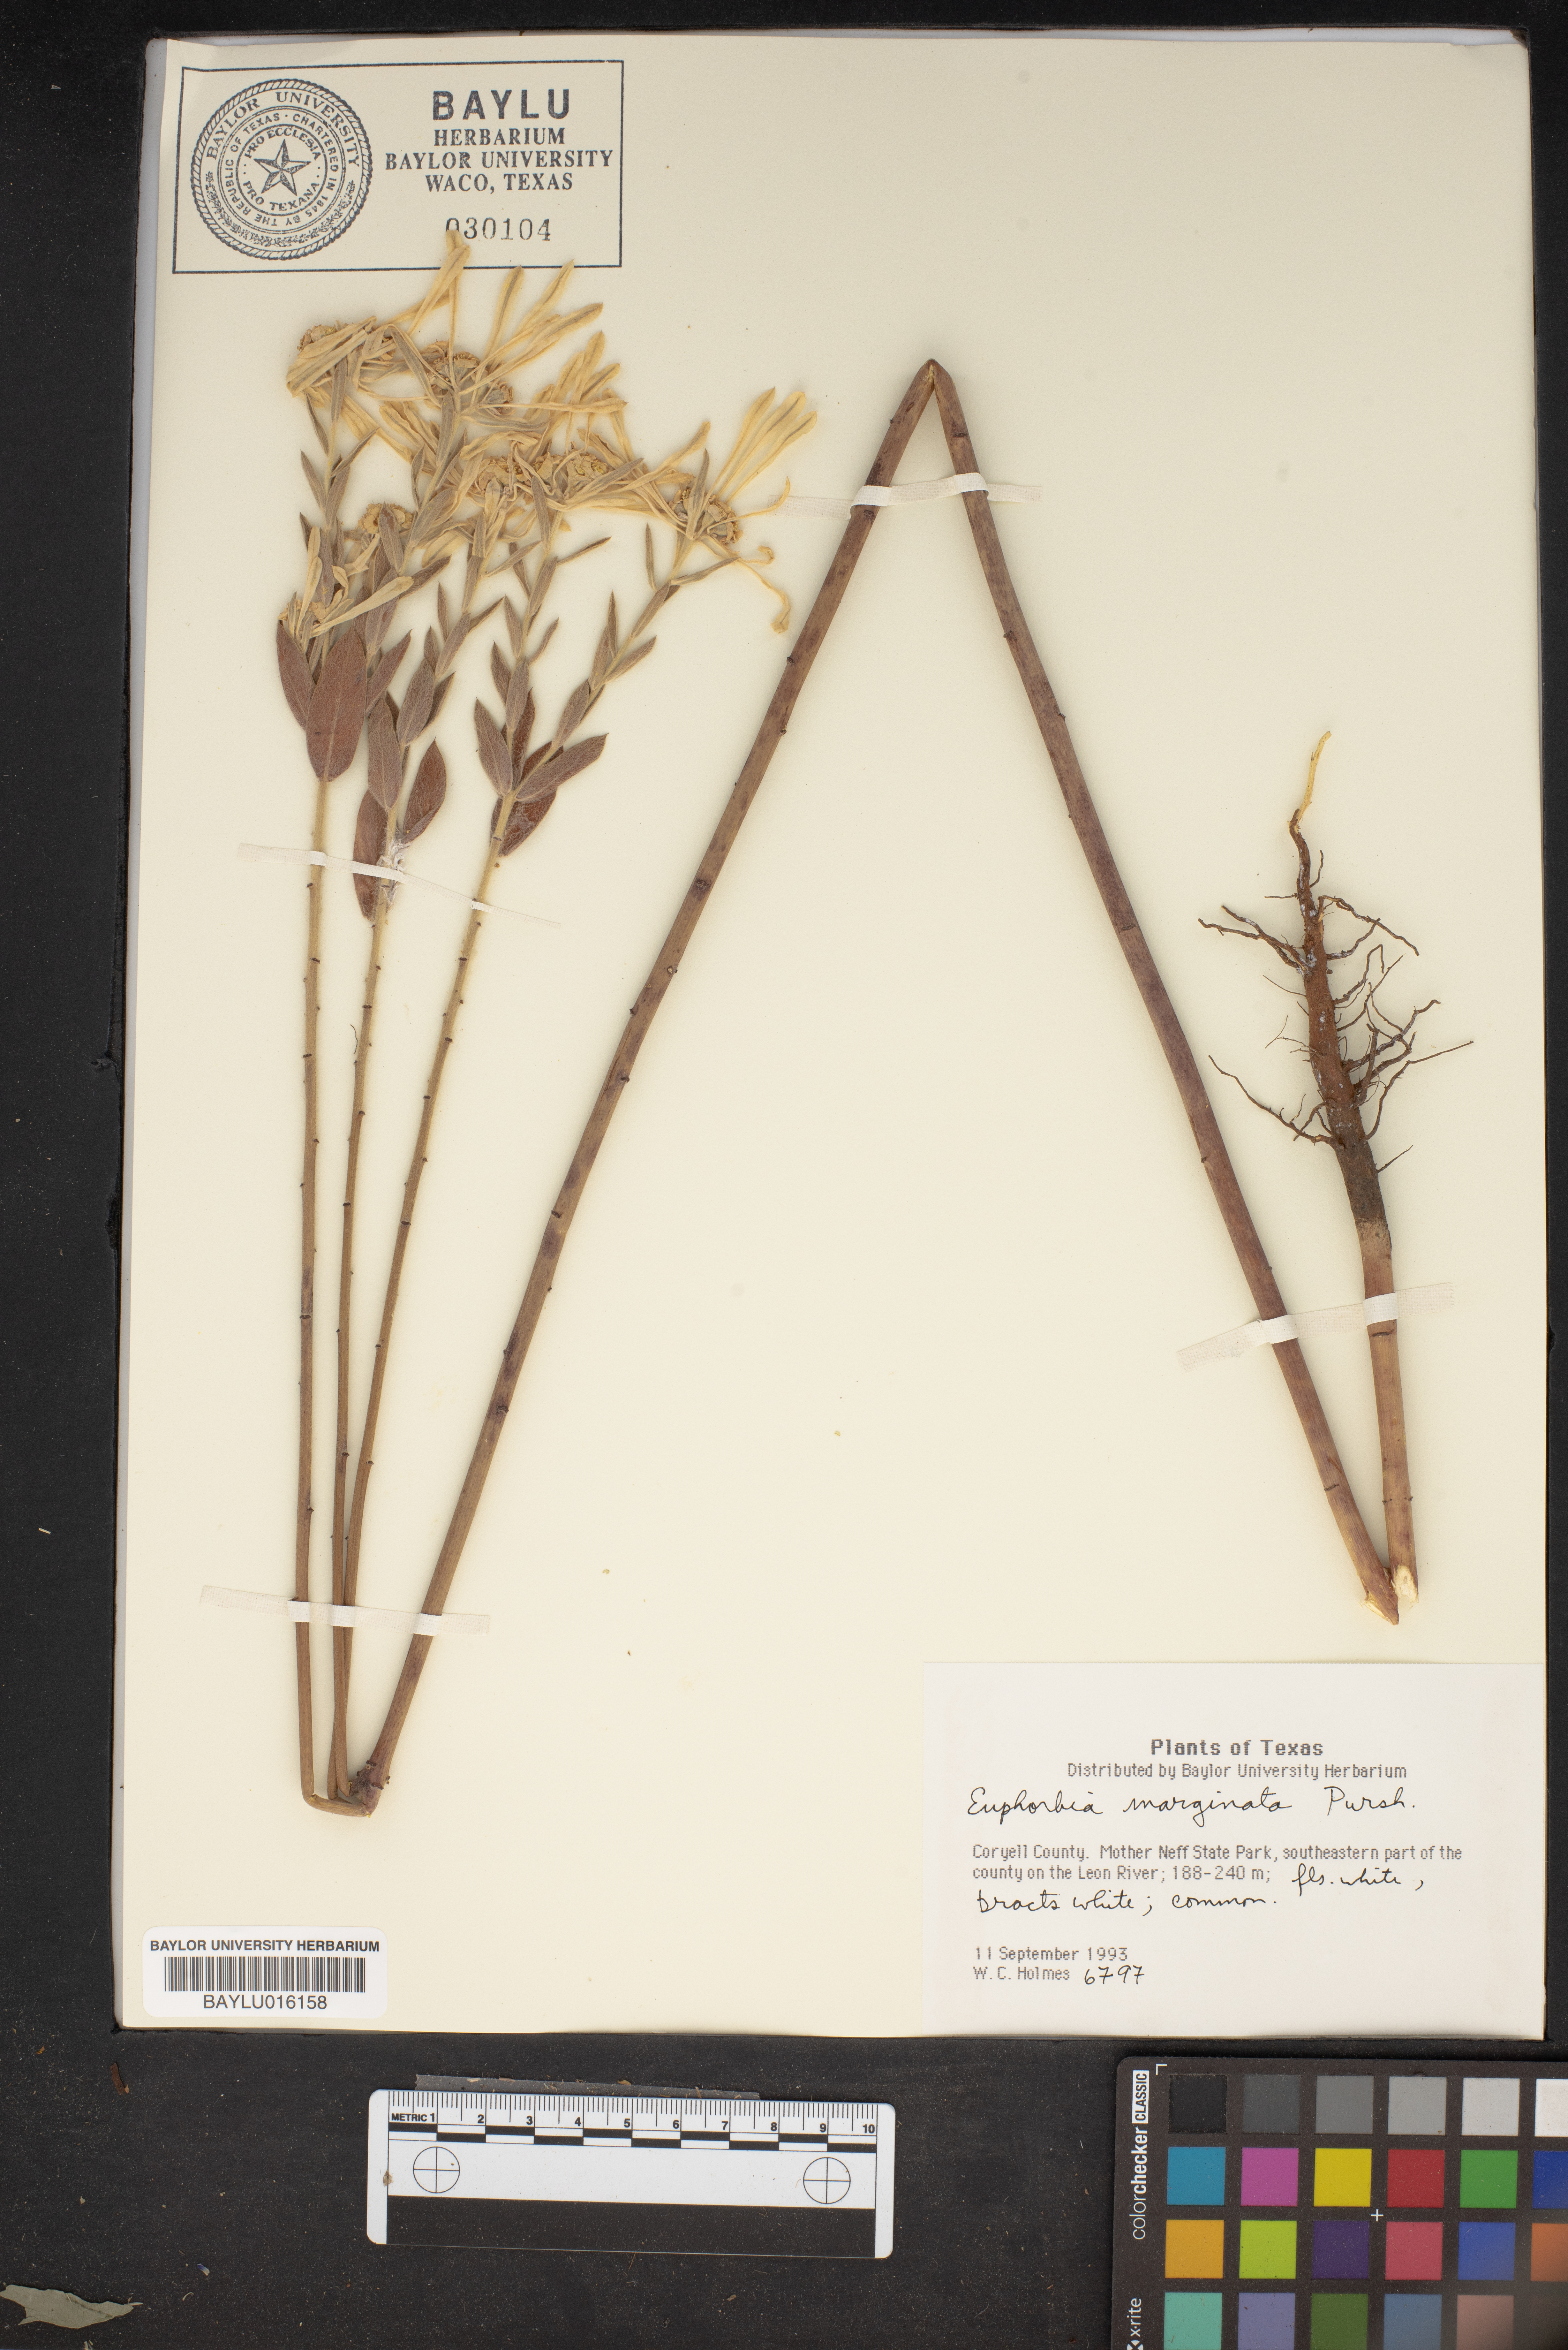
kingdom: Plantae
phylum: Tracheophyta
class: Magnoliopsida
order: Malpighiales
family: Euphorbiaceae
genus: Euphorbia
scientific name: Euphorbia marginata
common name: Ghostweed
